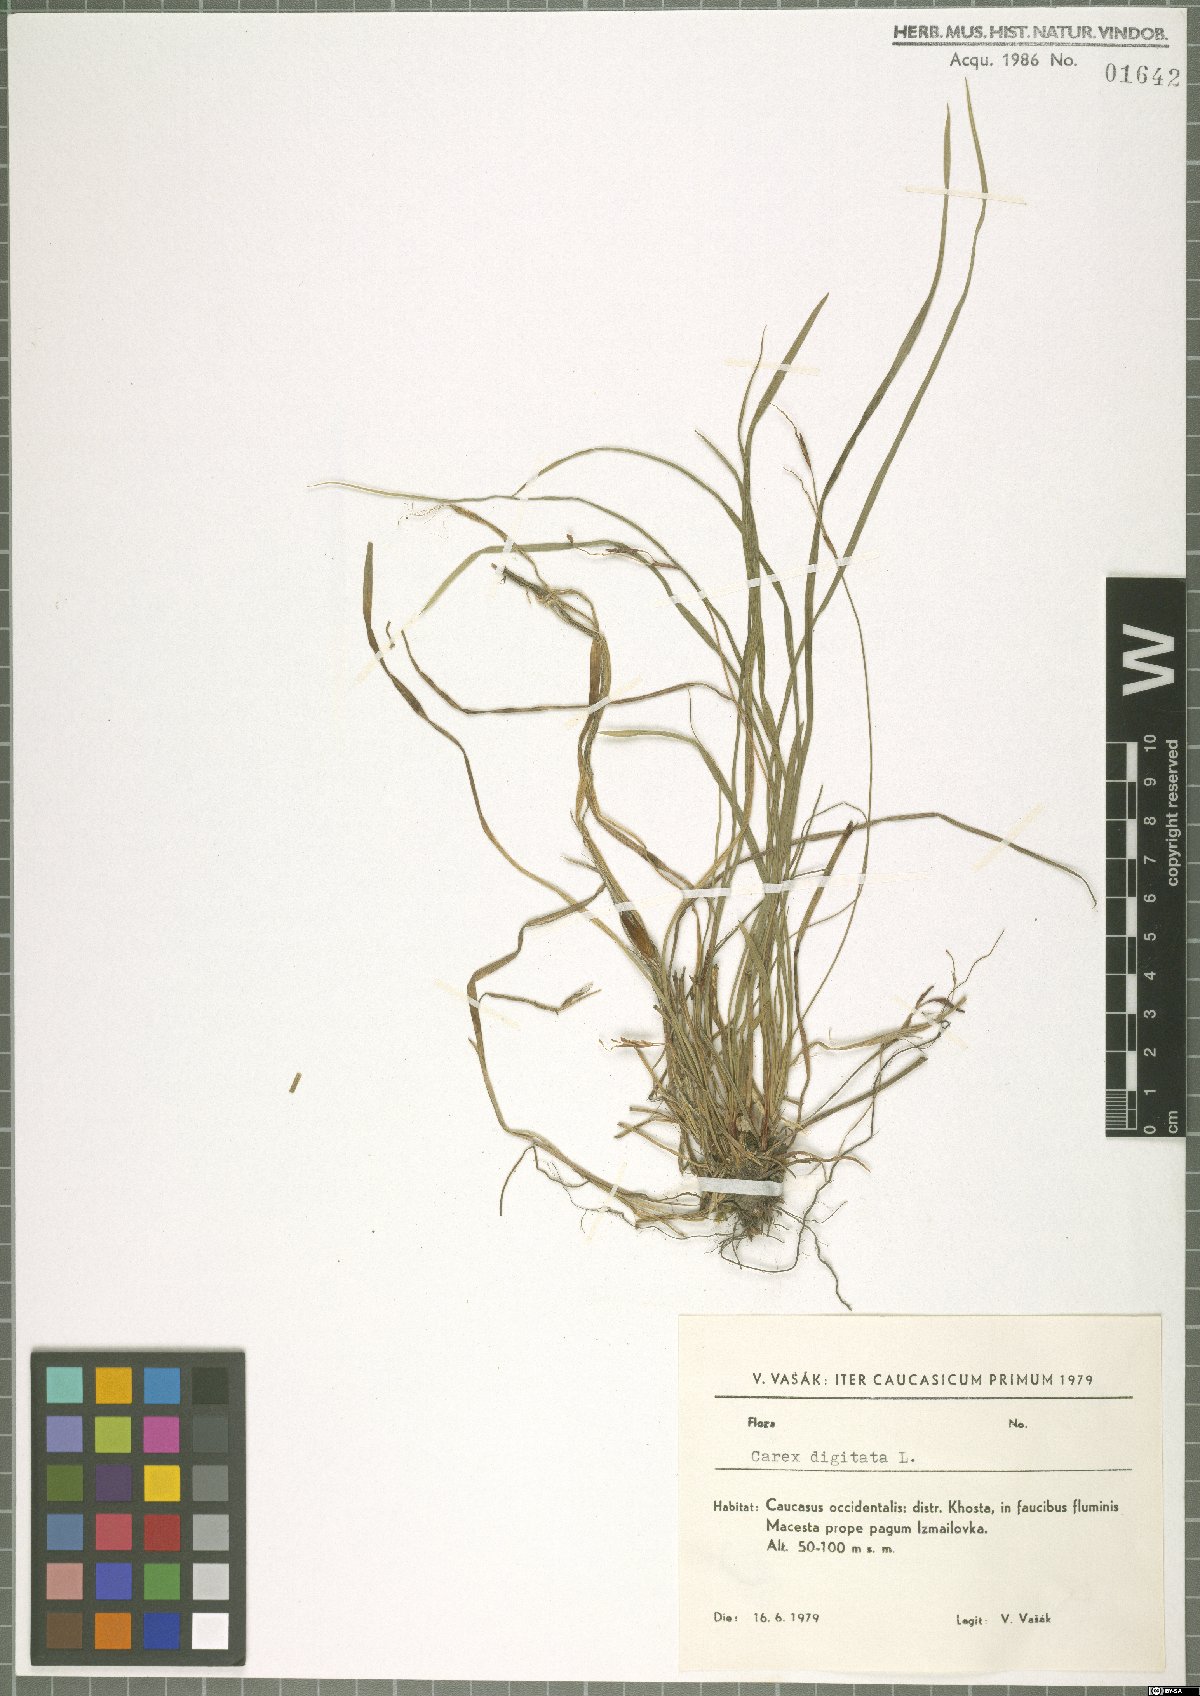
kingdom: Plantae
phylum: Tracheophyta
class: Liliopsida
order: Poales
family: Cyperaceae
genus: Carex
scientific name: Carex digitata
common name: Fingered sedge
